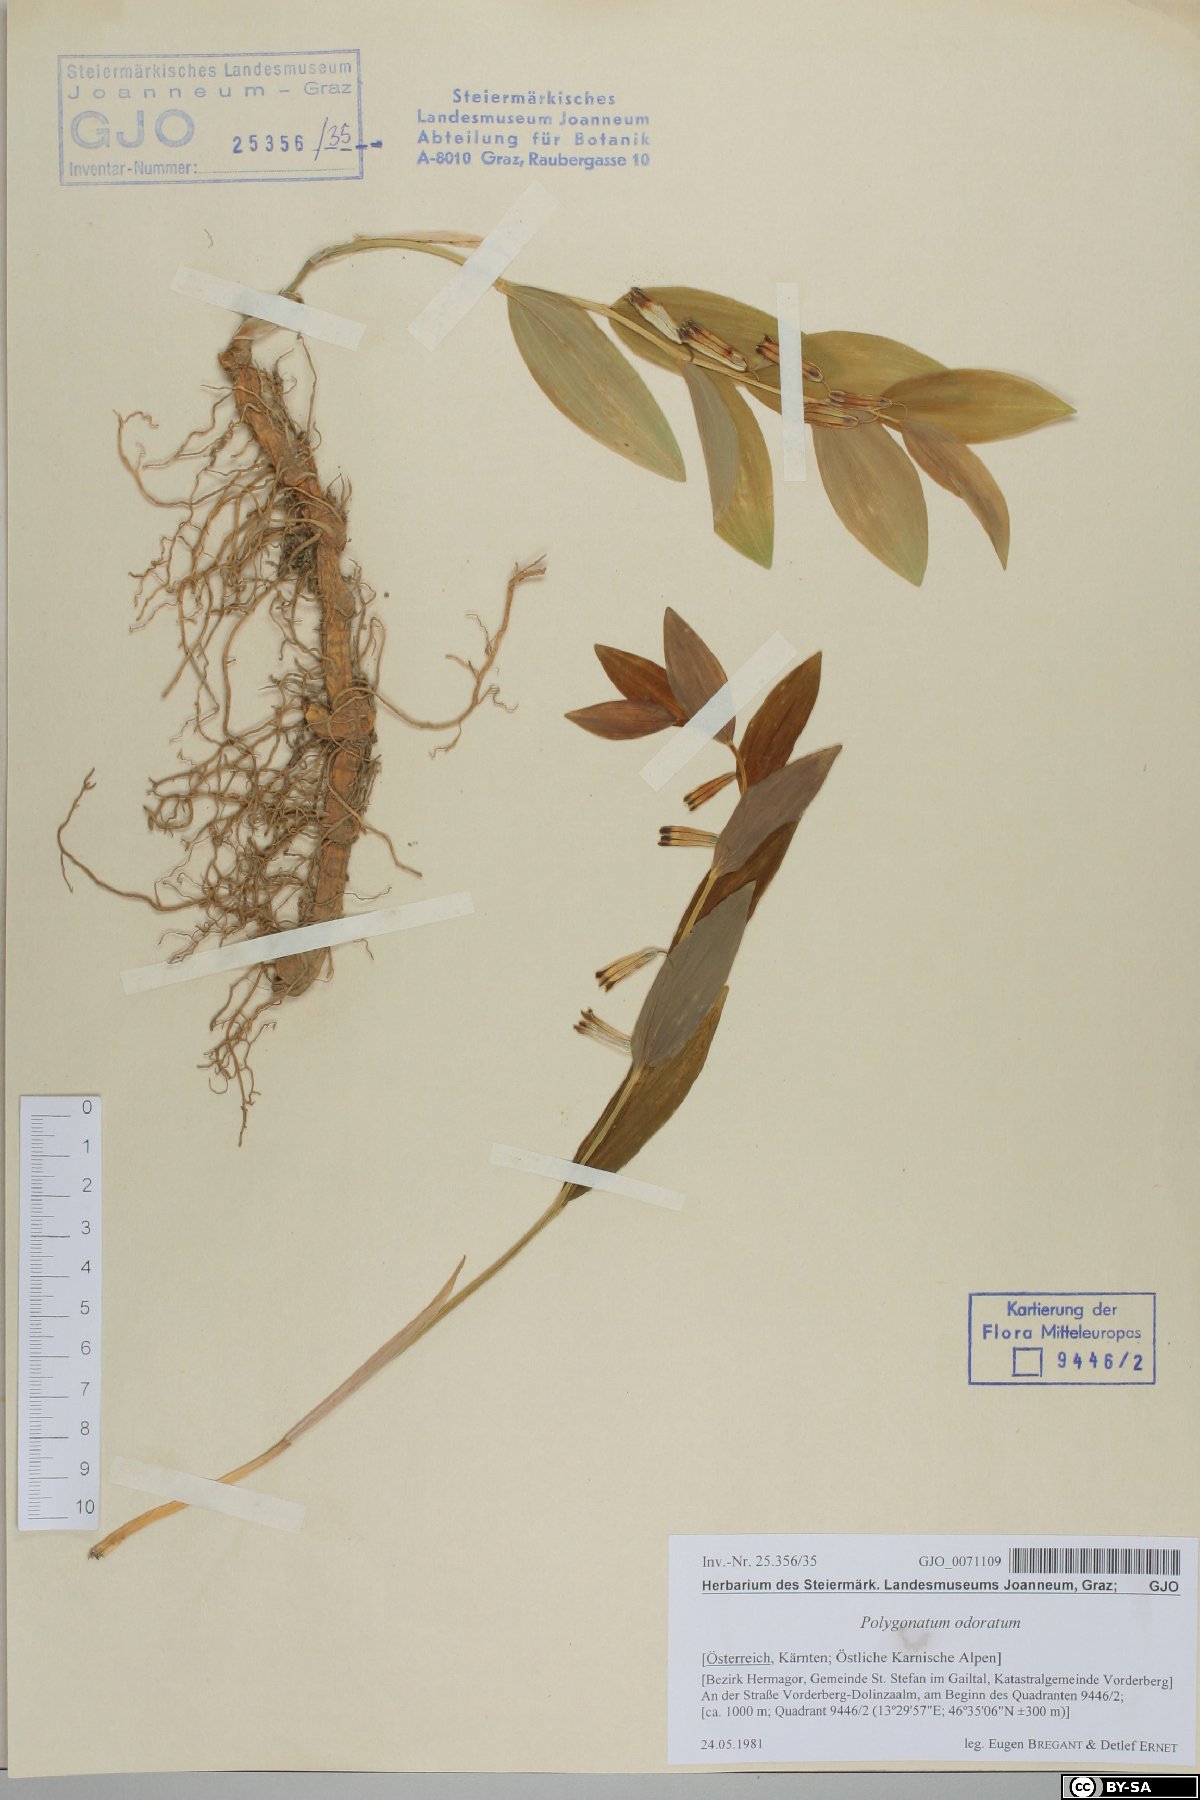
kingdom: Plantae
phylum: Tracheophyta
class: Liliopsida
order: Asparagales
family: Asparagaceae
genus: Polygonatum
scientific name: Polygonatum odoratum
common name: Angular solomon's-seal
